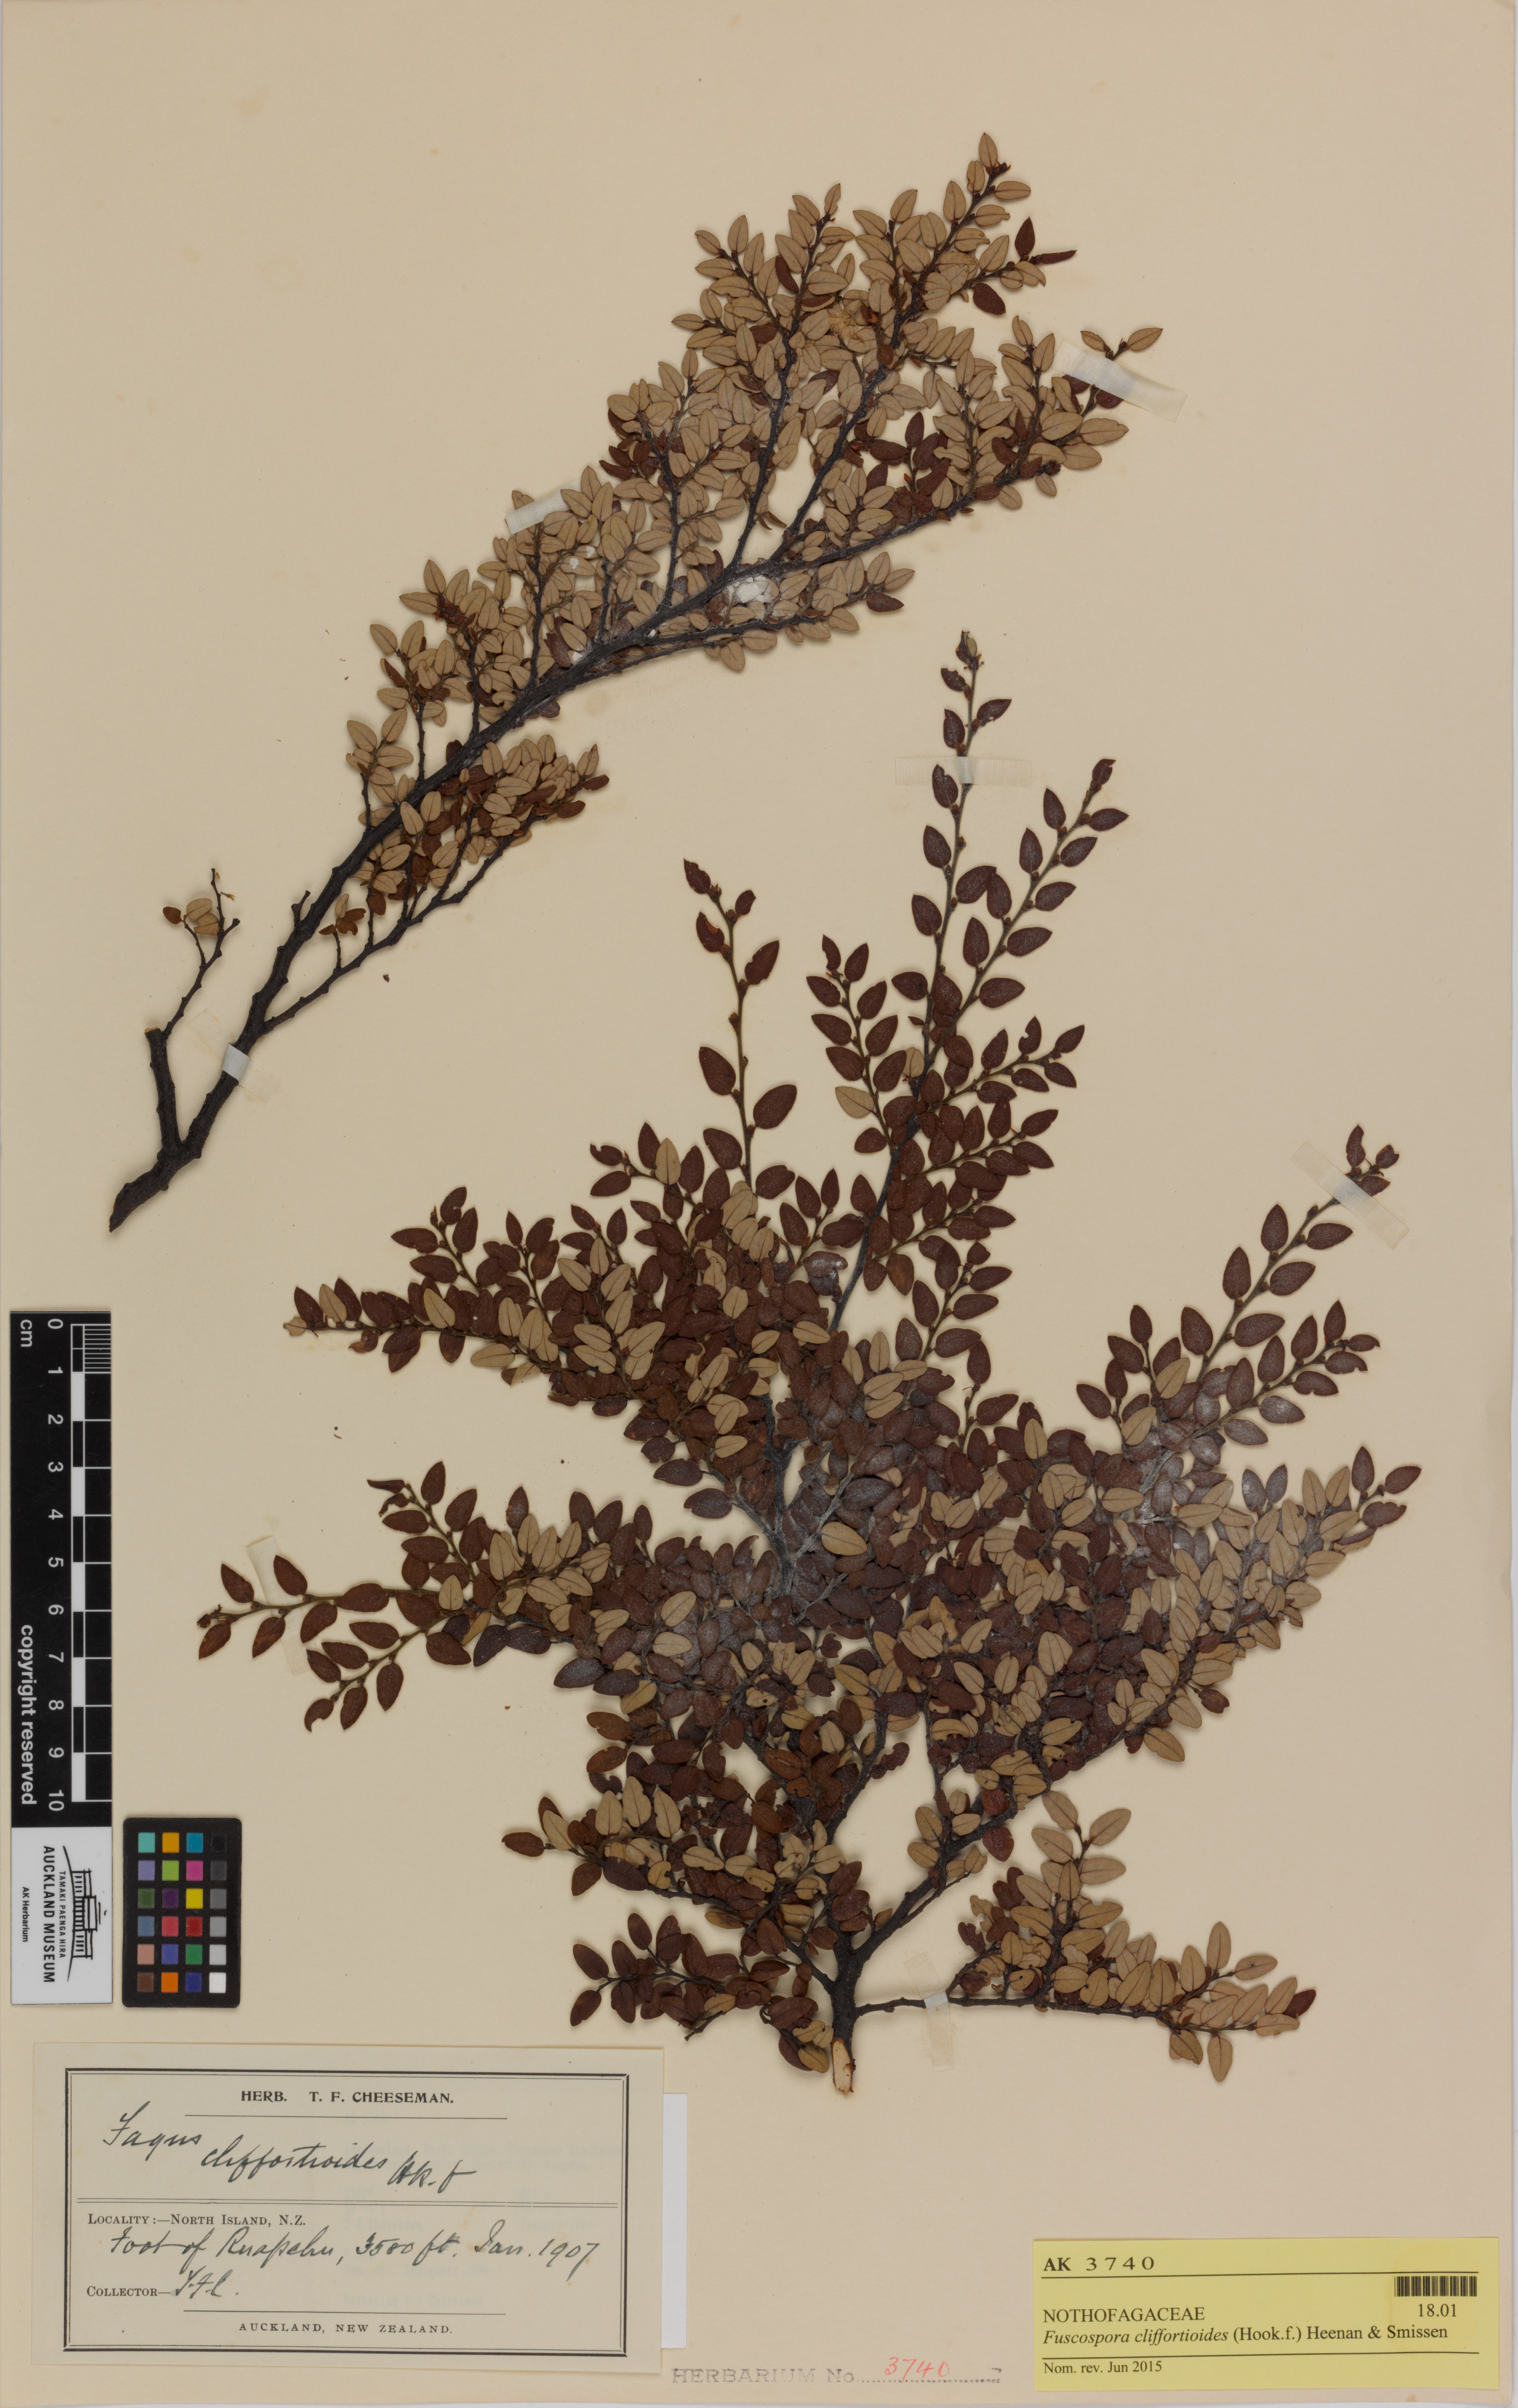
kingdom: Plantae
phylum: Tracheophyta
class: Magnoliopsida
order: Fagales
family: Nothofagaceae
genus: Nothofagus
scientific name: Nothofagus cliffortioides
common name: Mountain beech
